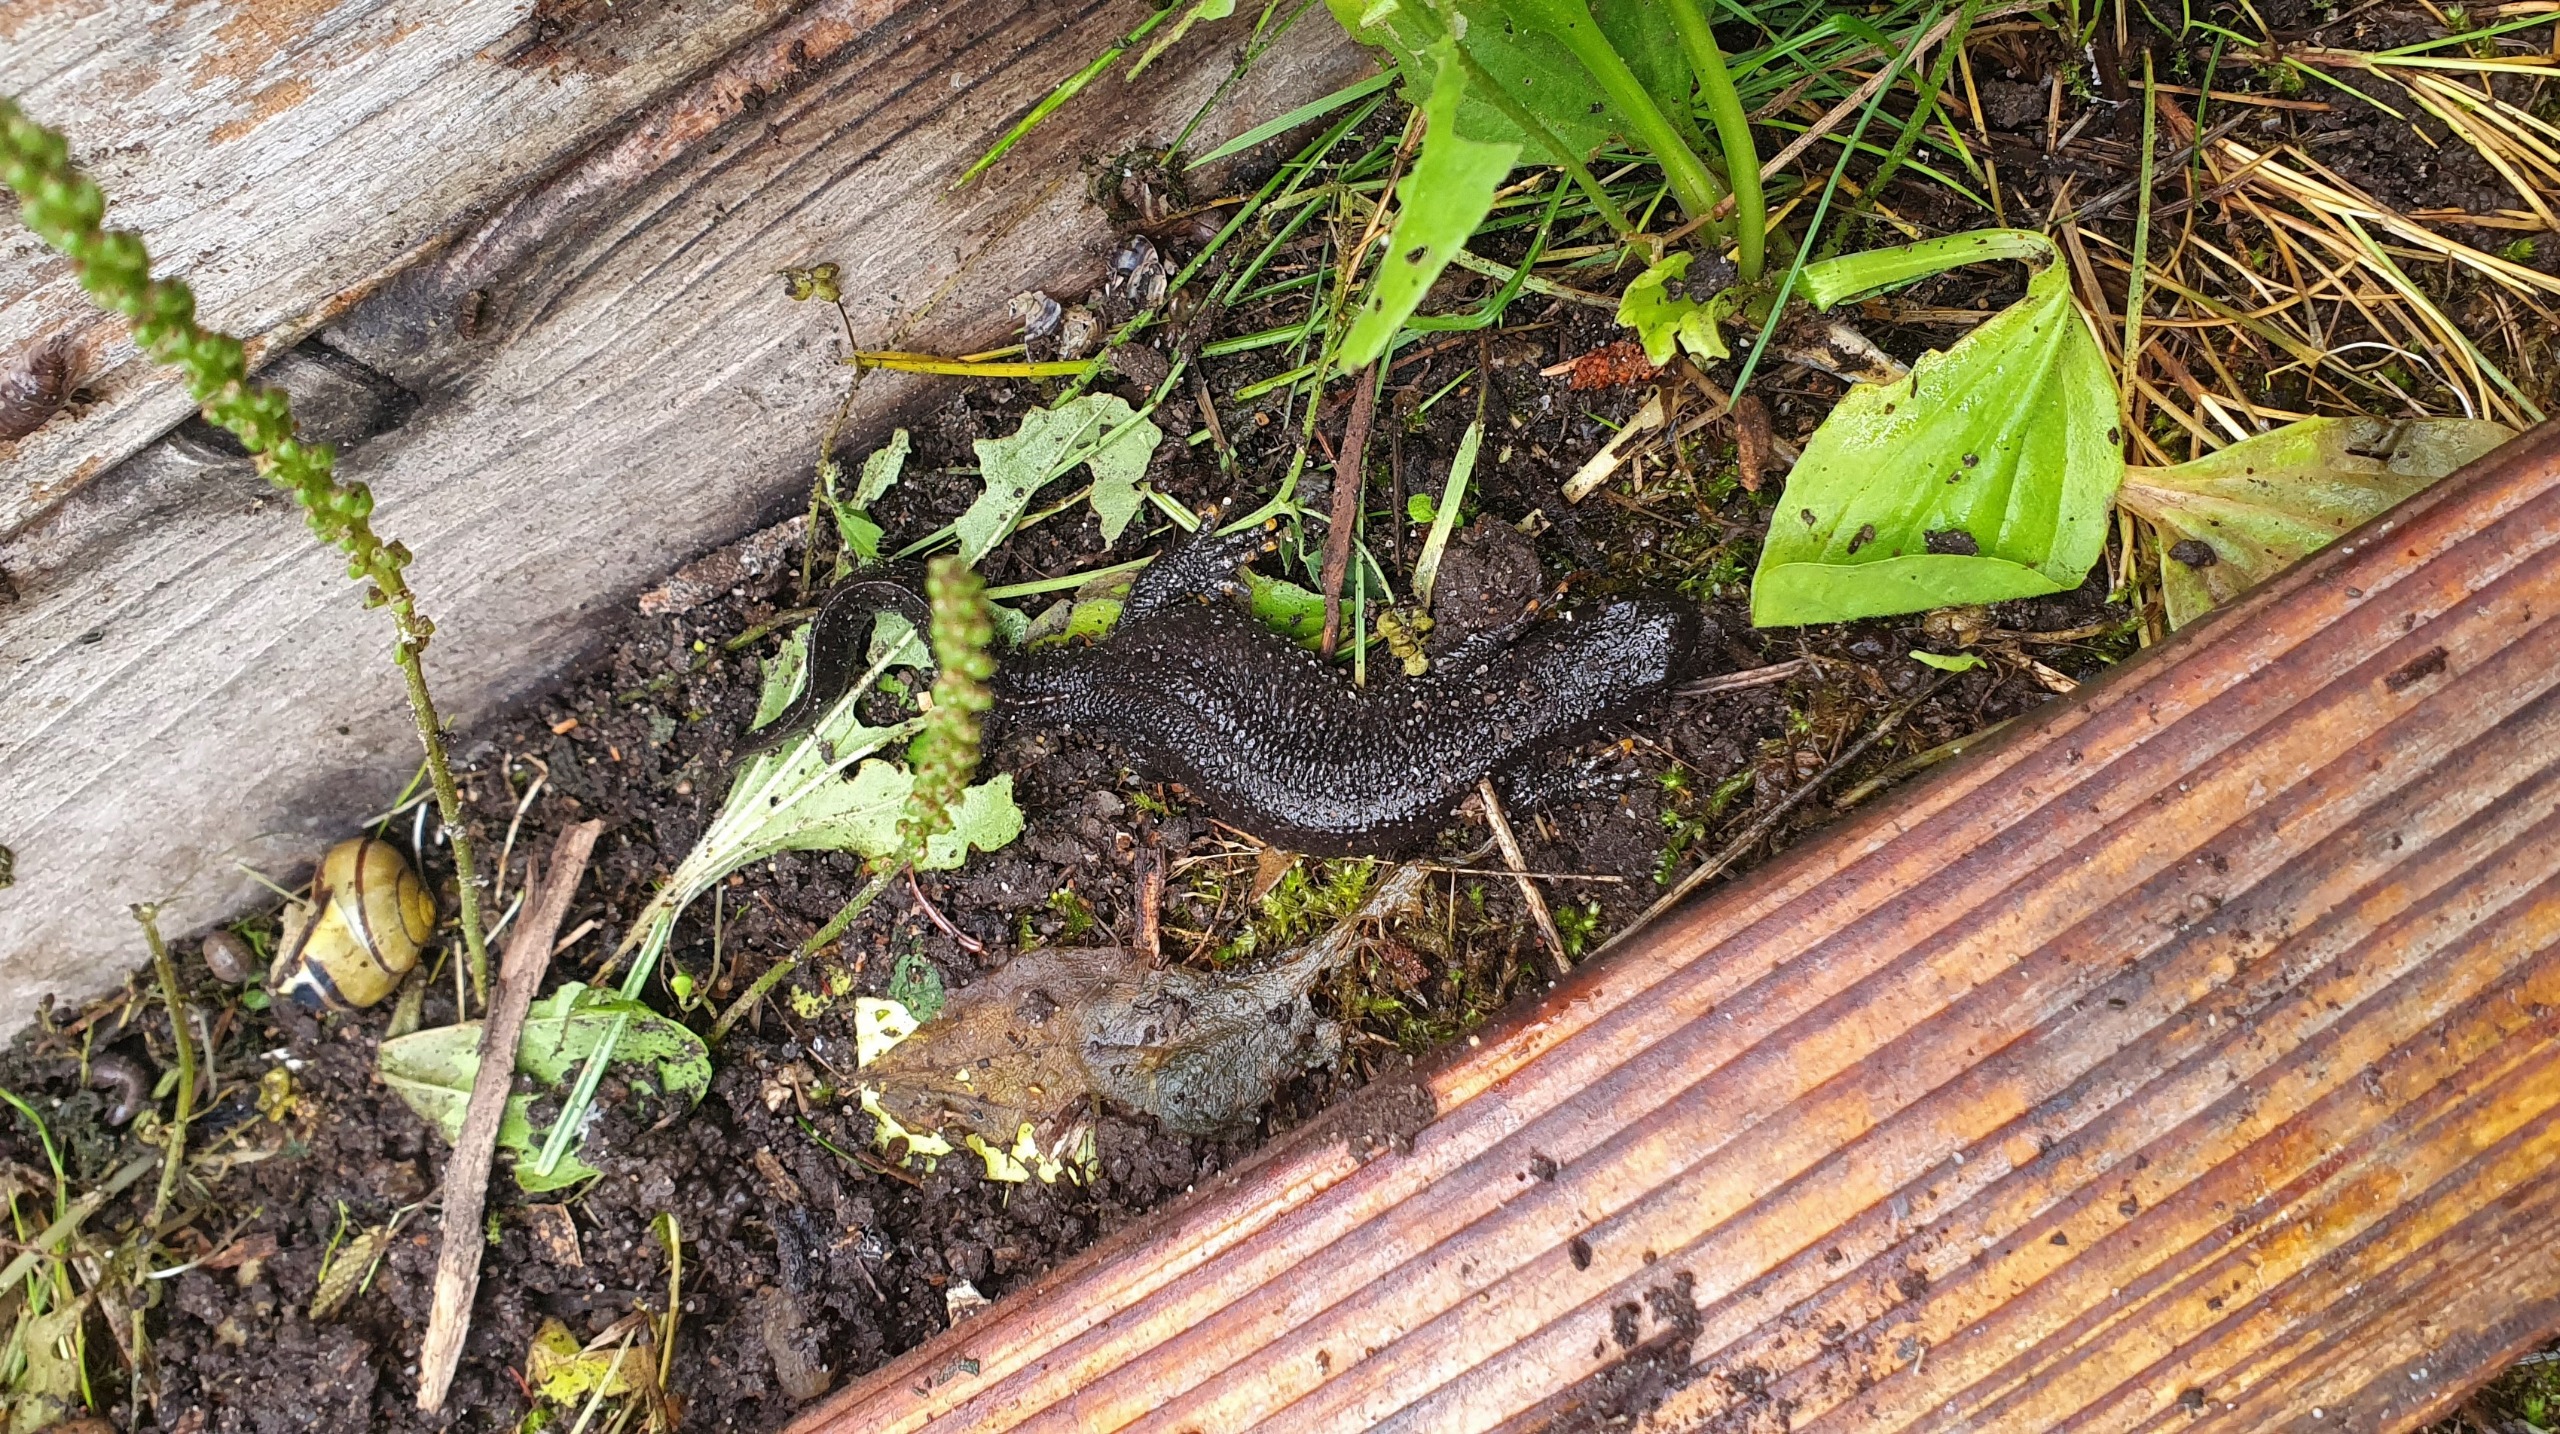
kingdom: Animalia
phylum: Chordata
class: Amphibia
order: Caudata
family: Salamandridae
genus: Triturus
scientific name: Triturus cristatus
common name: Stor vandsalamander
